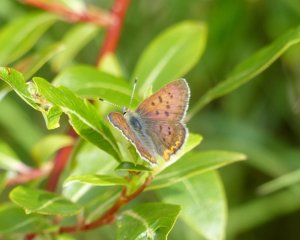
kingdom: Animalia
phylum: Arthropoda
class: Insecta
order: Lepidoptera
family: Lycaenidae
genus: Epidemia
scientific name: Epidemia dorcas
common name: Dorcas Copper
